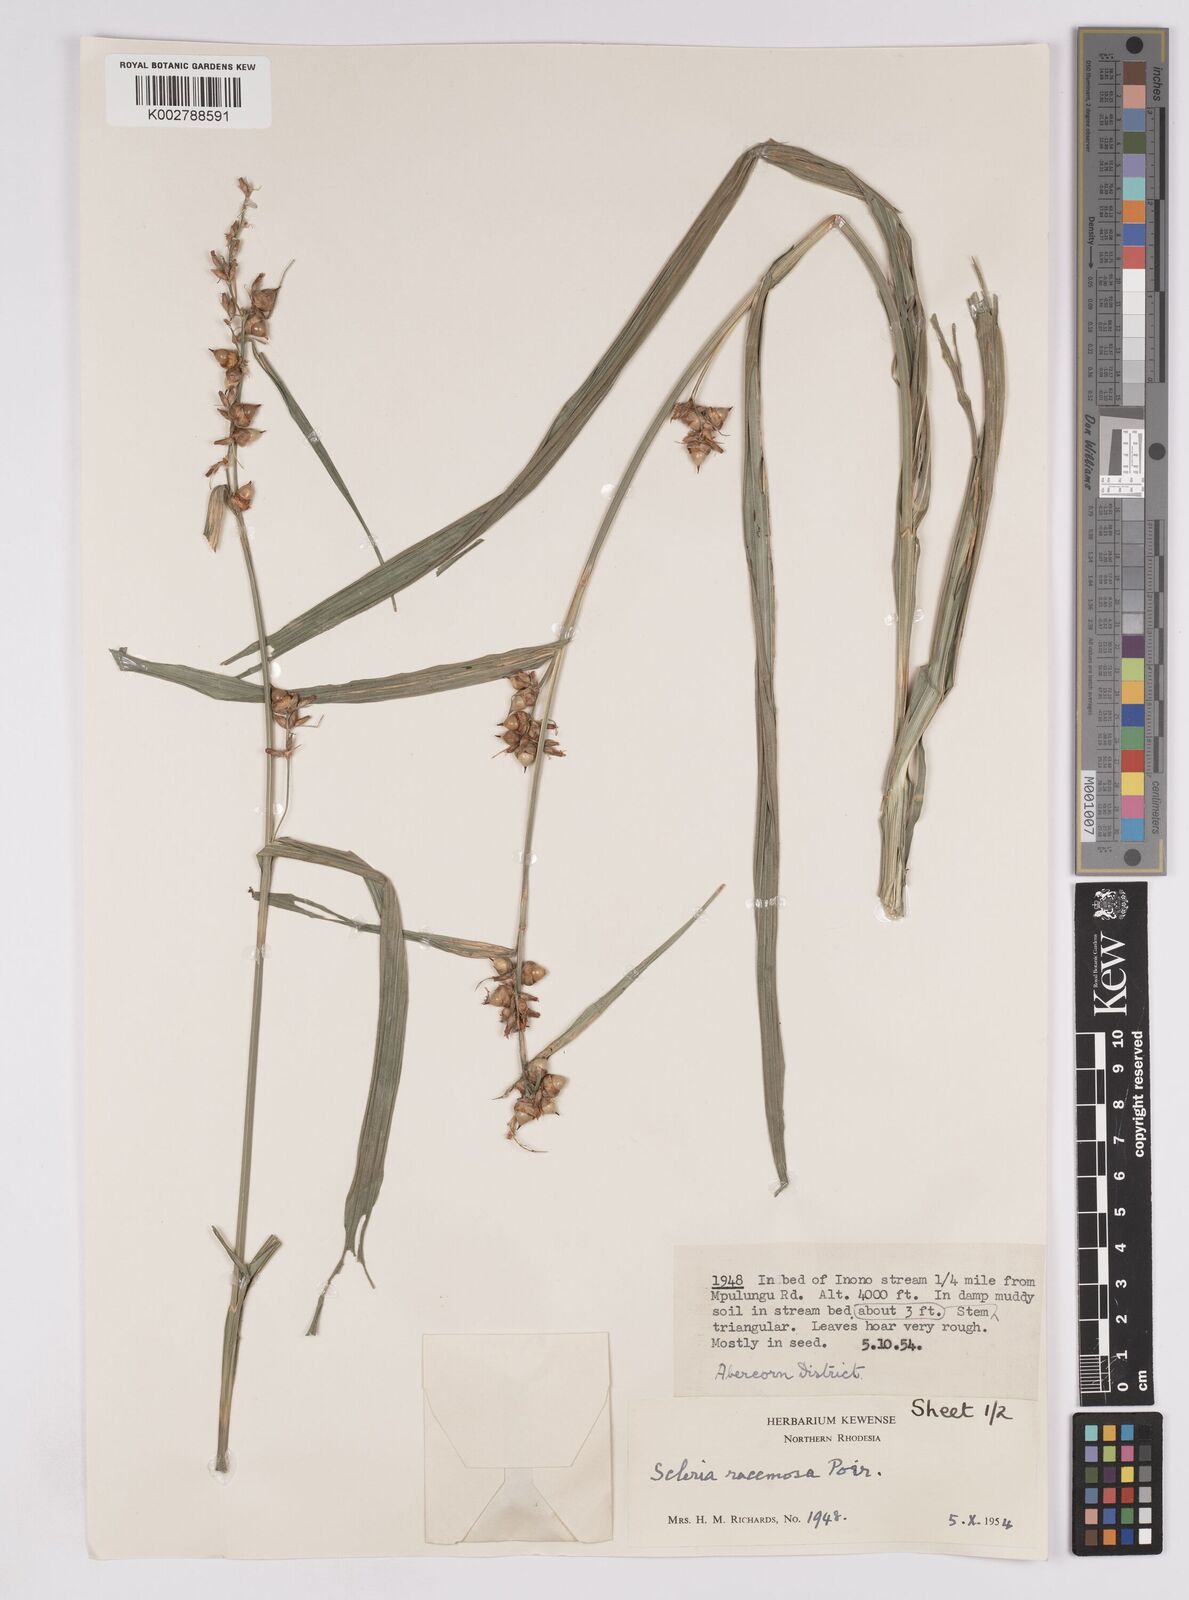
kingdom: Plantae
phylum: Tracheophyta
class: Liliopsida
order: Poales
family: Cyperaceae
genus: Scleria
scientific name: Scleria racemosa
